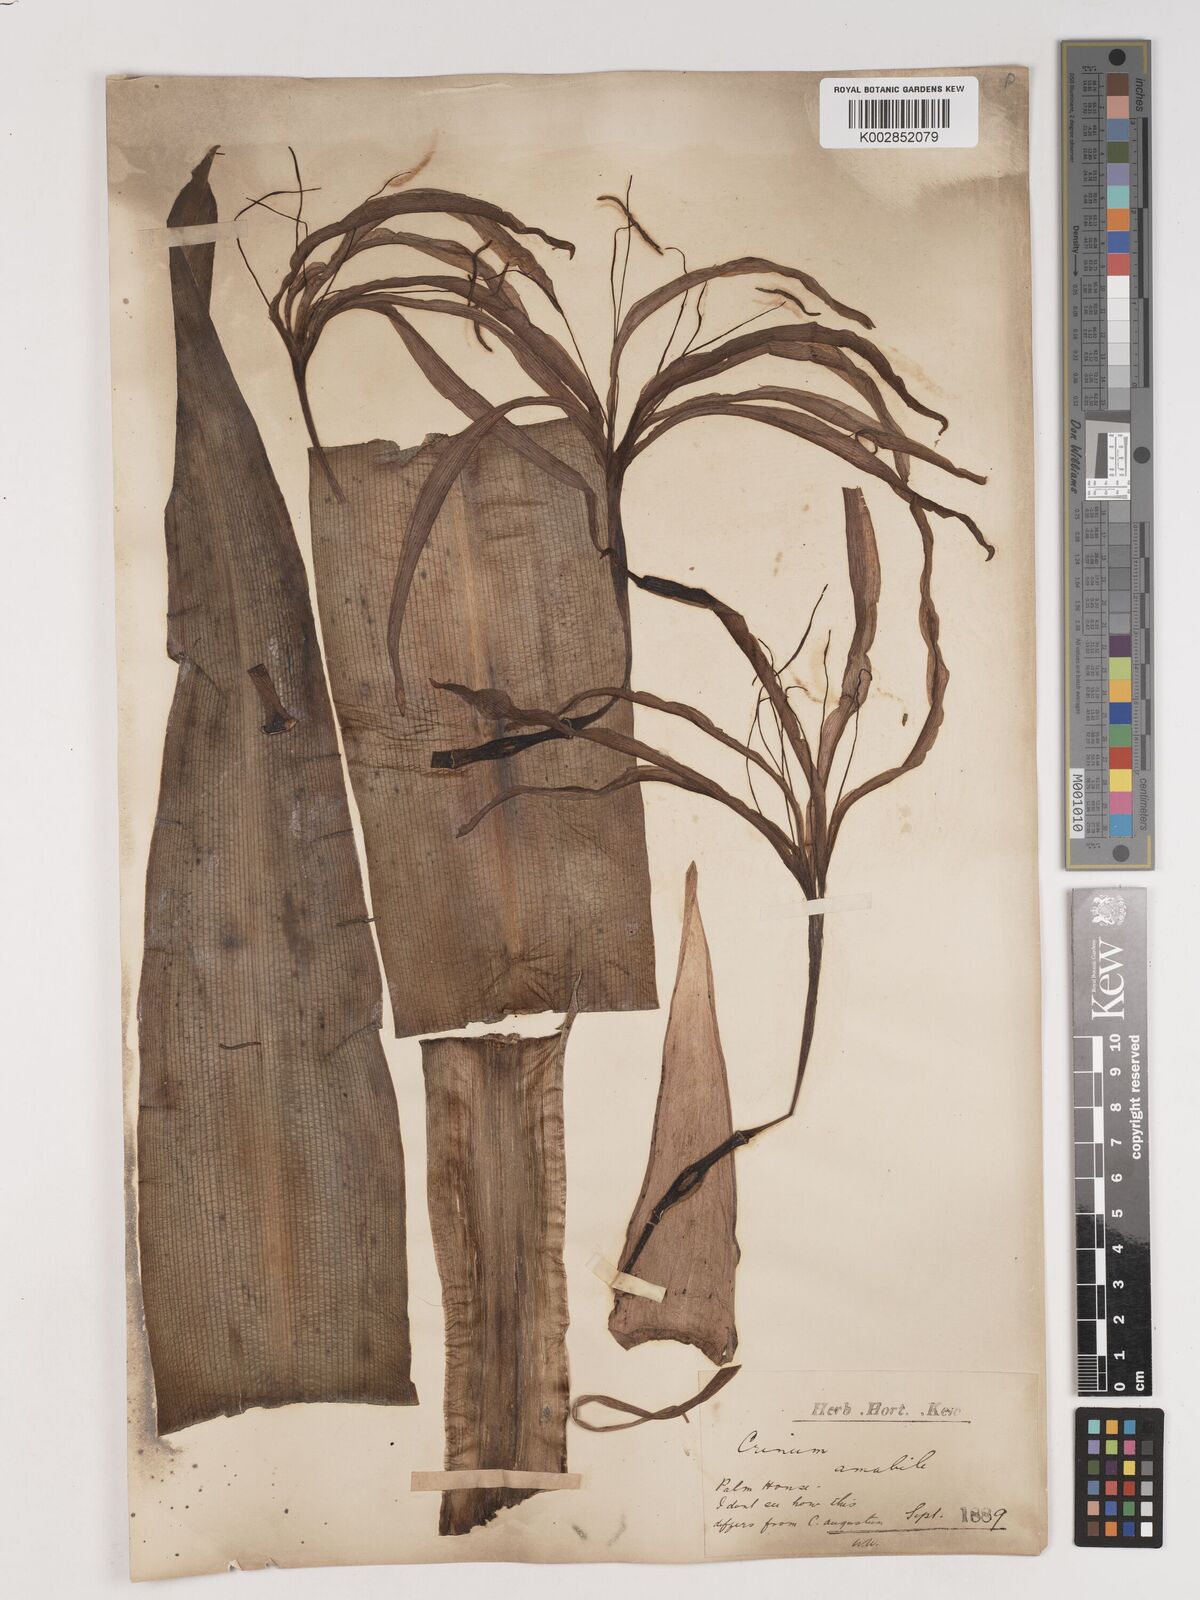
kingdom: Plantae
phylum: Tracheophyta
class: Liliopsida
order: Asparagales
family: Amaryllidaceae
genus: Crinum
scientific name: Crinum amabile
